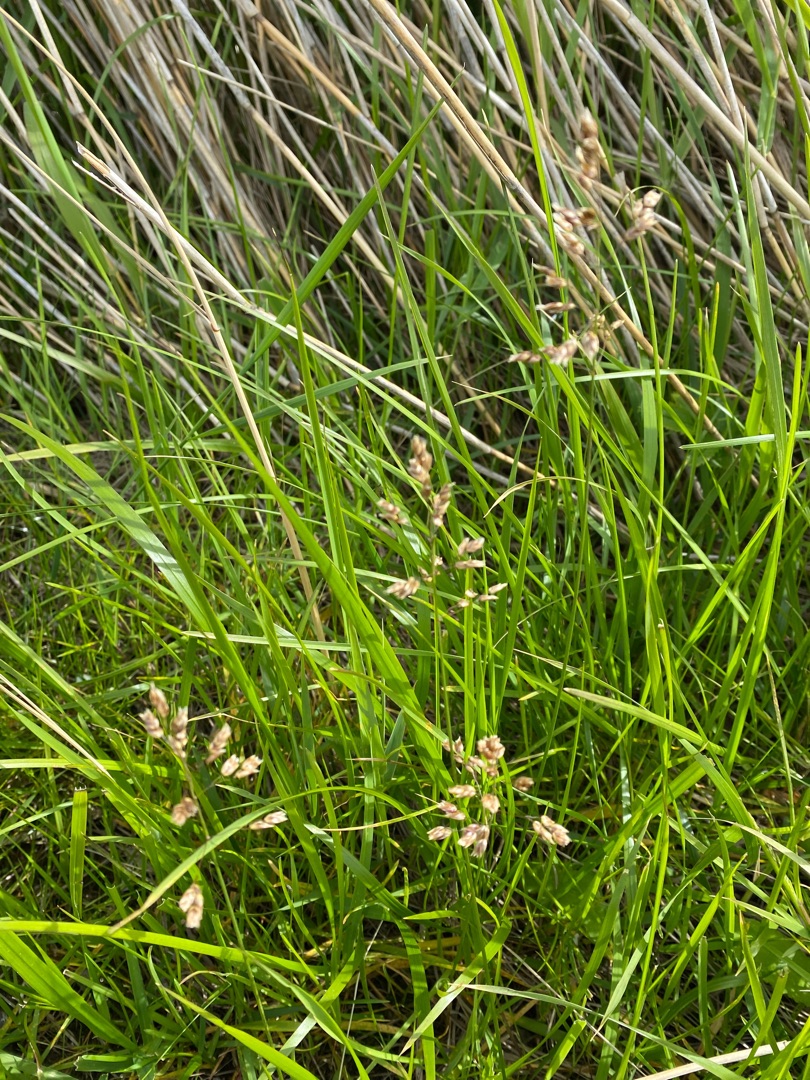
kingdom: Plantae
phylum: Tracheophyta
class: Liliopsida
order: Poales
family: Poaceae
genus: Anthoxanthum
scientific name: Anthoxanthum nitens
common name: Festgræs
